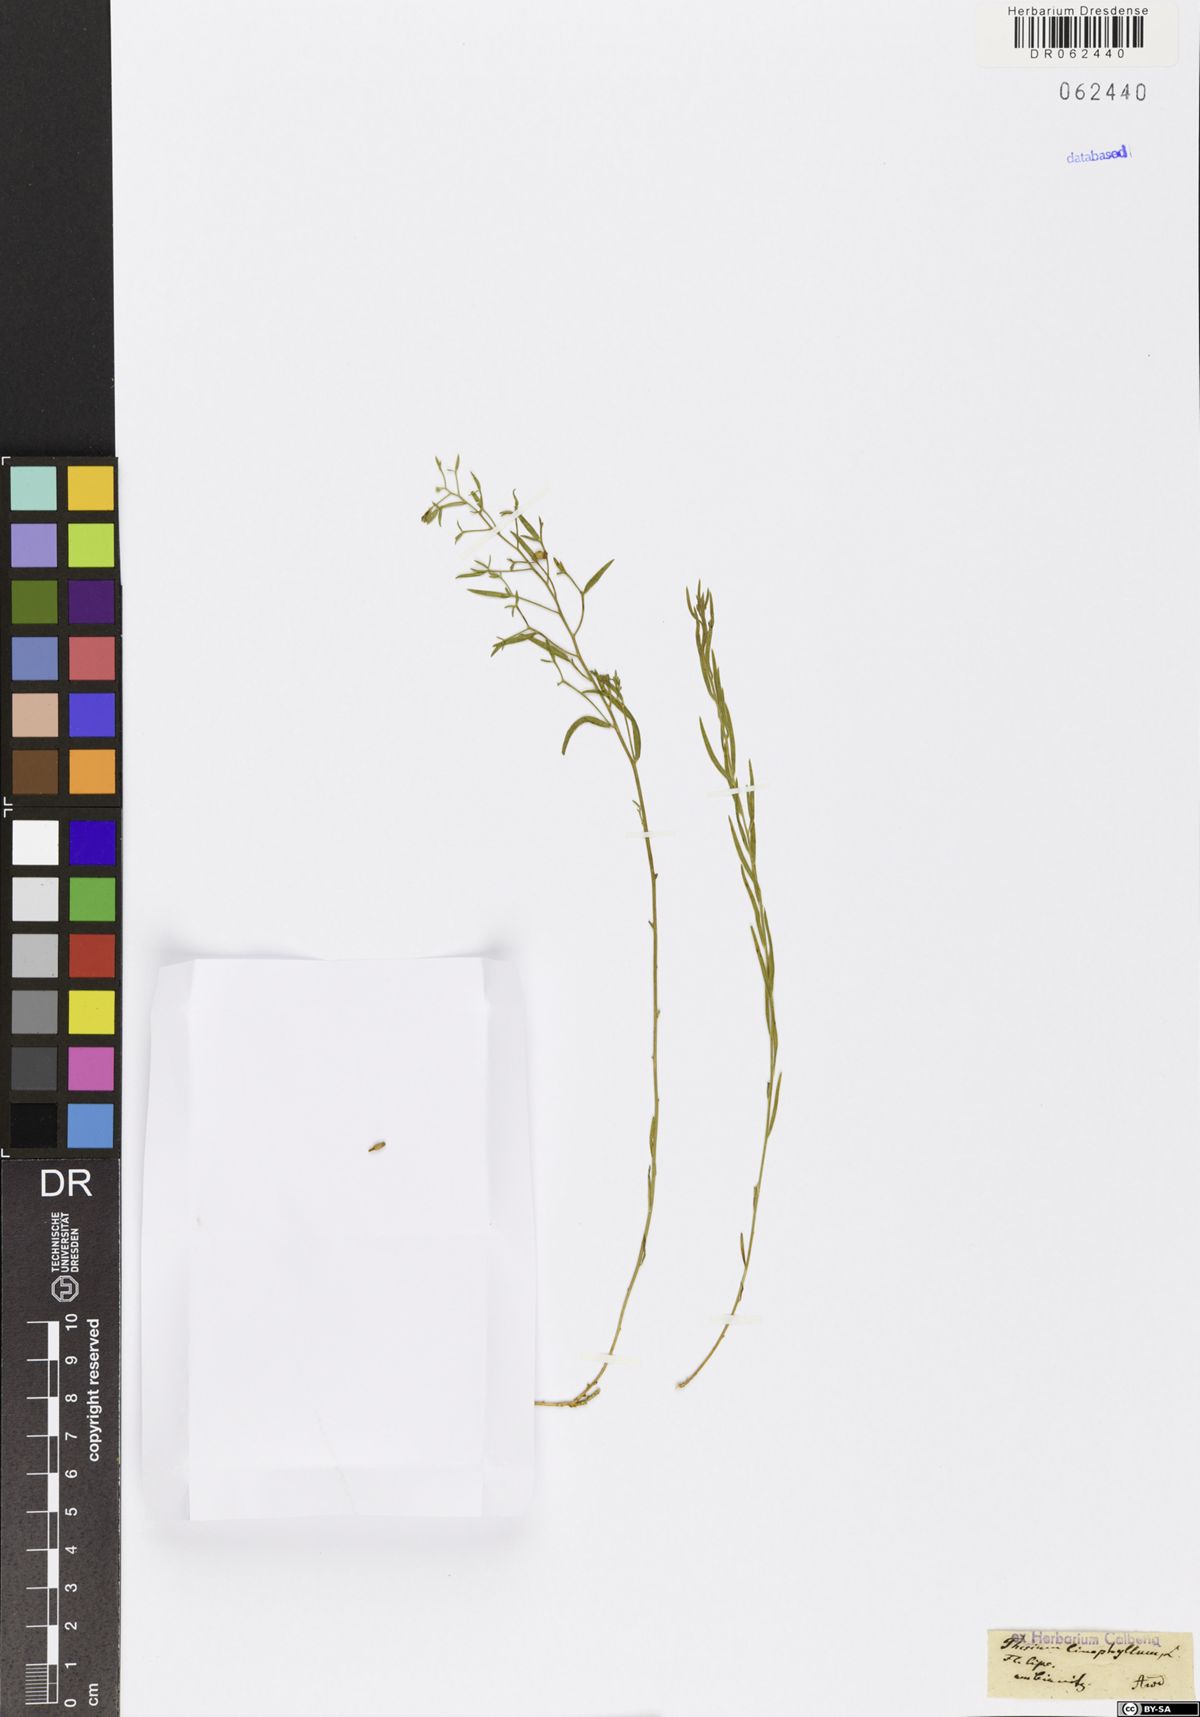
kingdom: Plantae
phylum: Tracheophyta
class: Magnoliopsida
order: Santalales
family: Thesiaceae
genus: Thesium
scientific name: Thesium linophyllon
